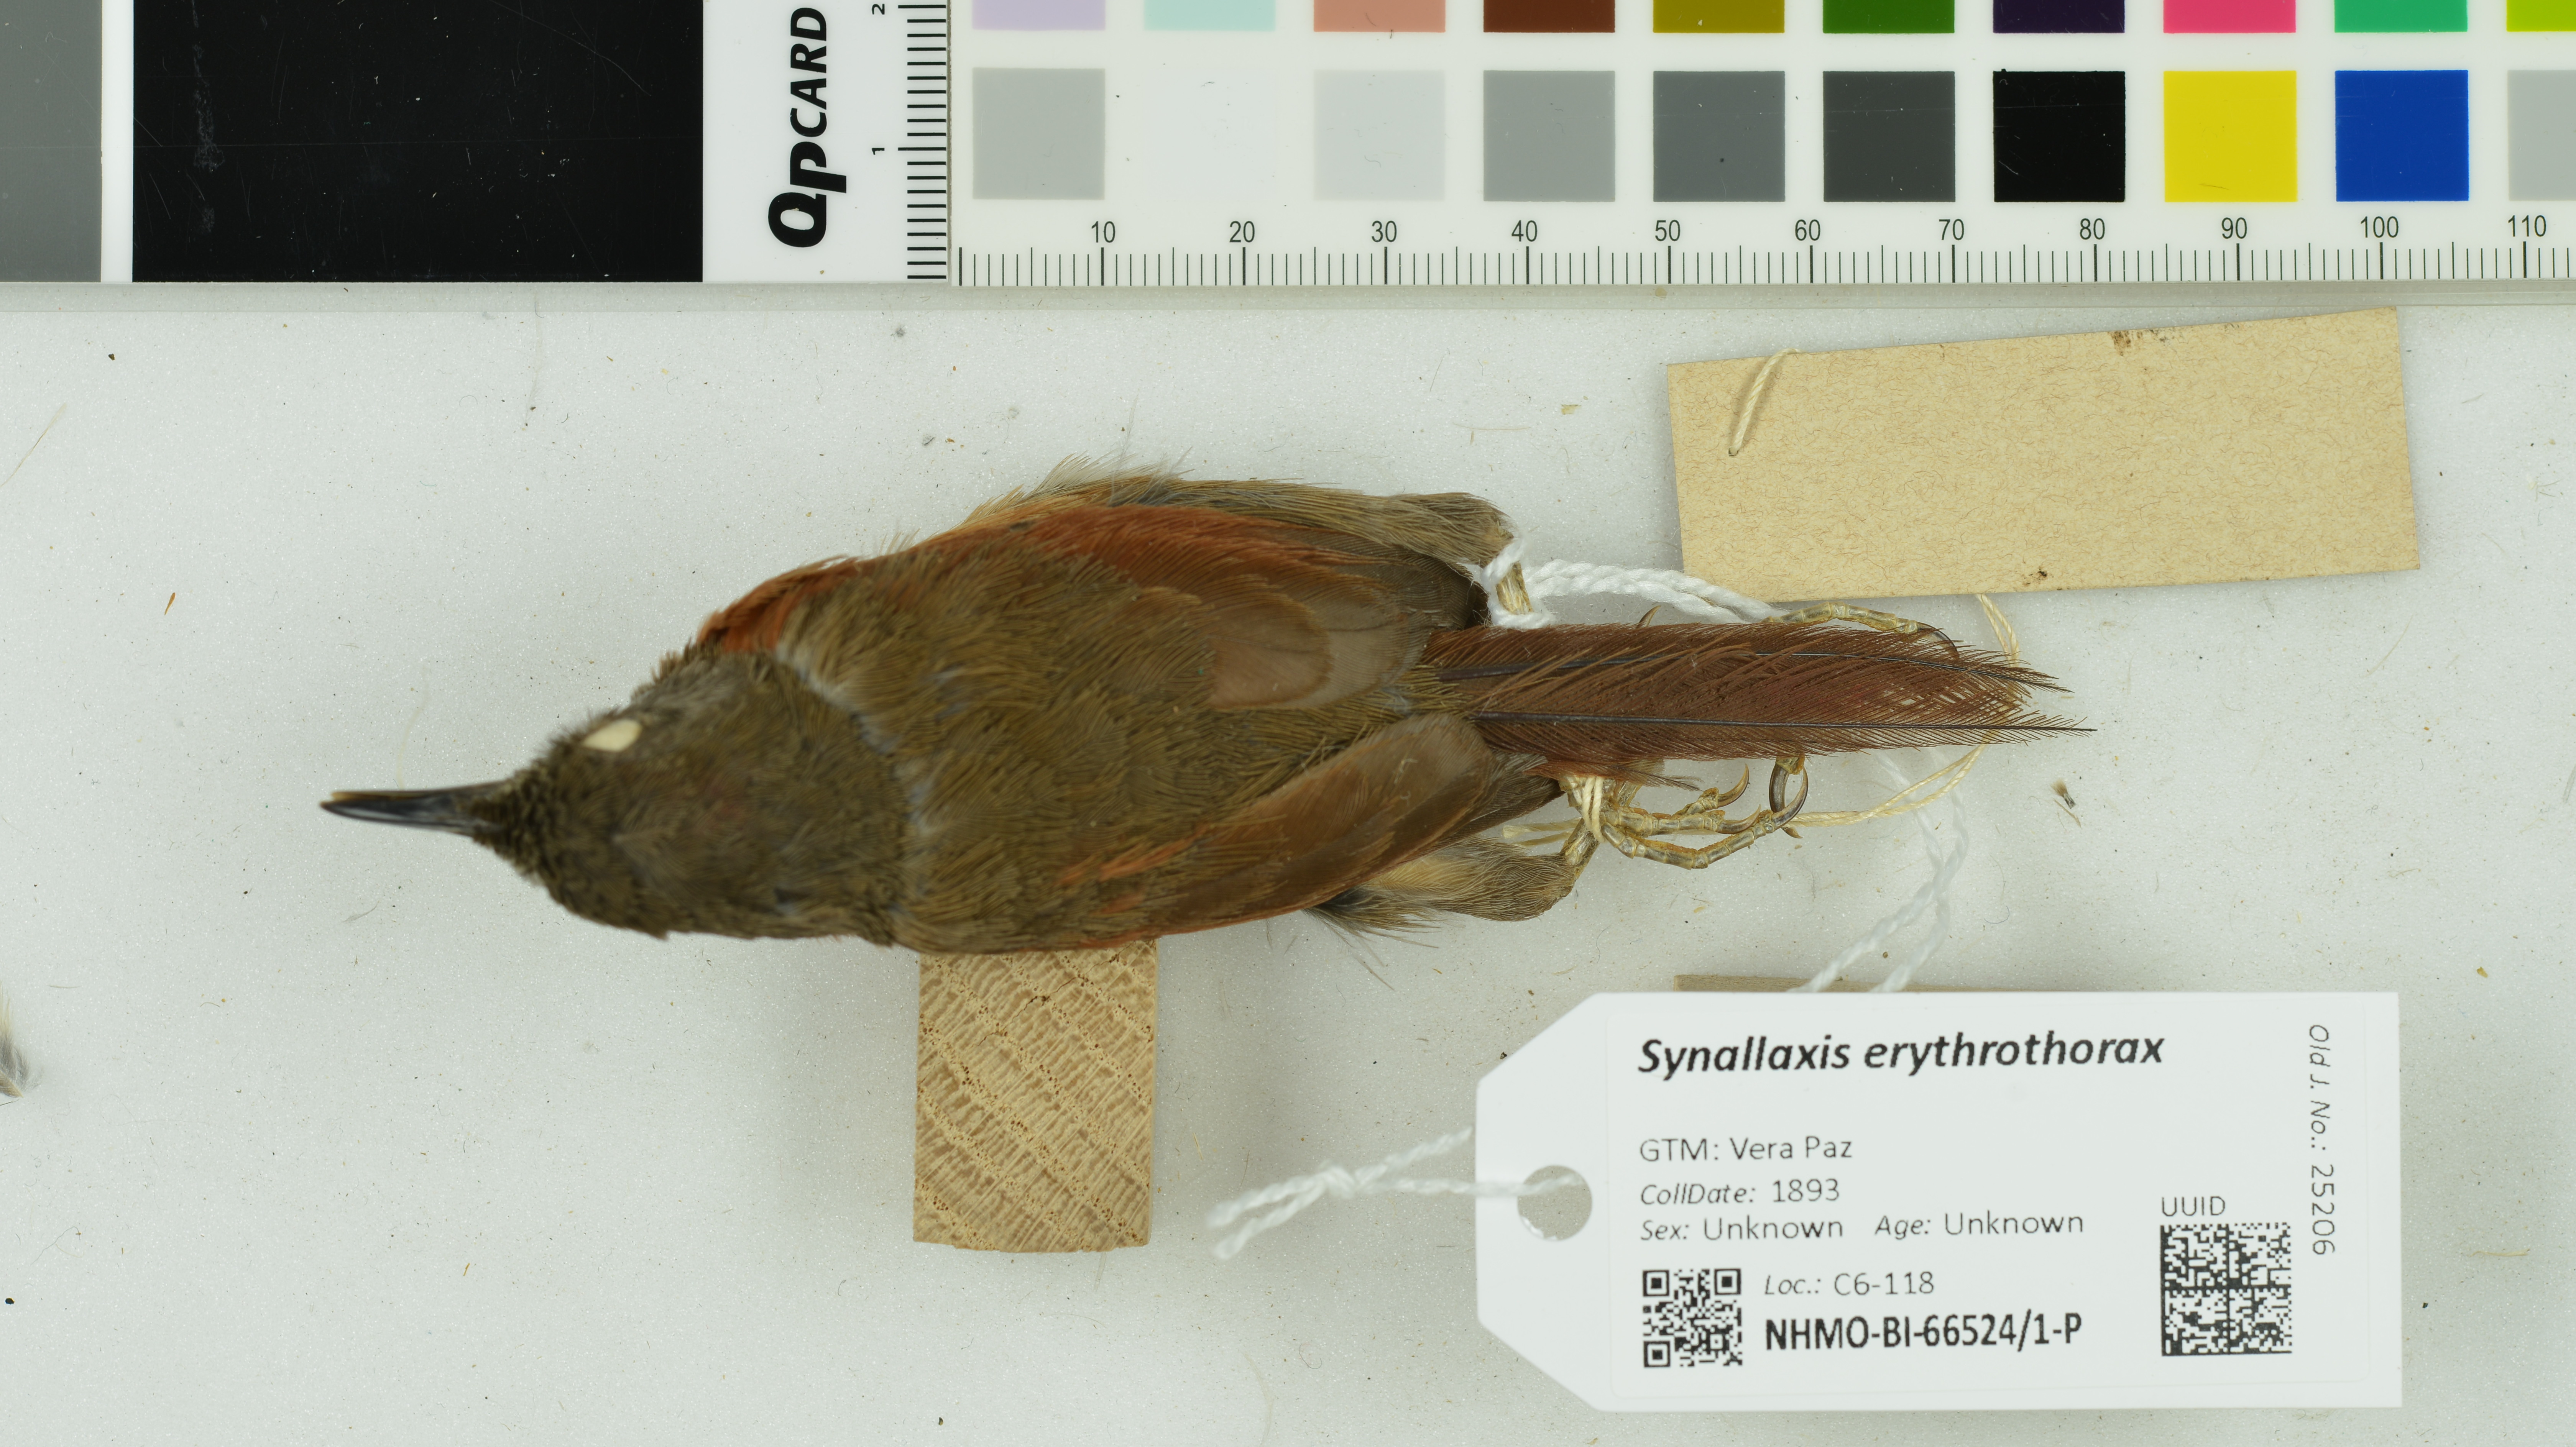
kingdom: Animalia
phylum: Chordata
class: Aves
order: Passeriformes
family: Furnariidae
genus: Synallaxis
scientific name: Synallaxis erythrothorax
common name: Rufous-breasted spinetail
